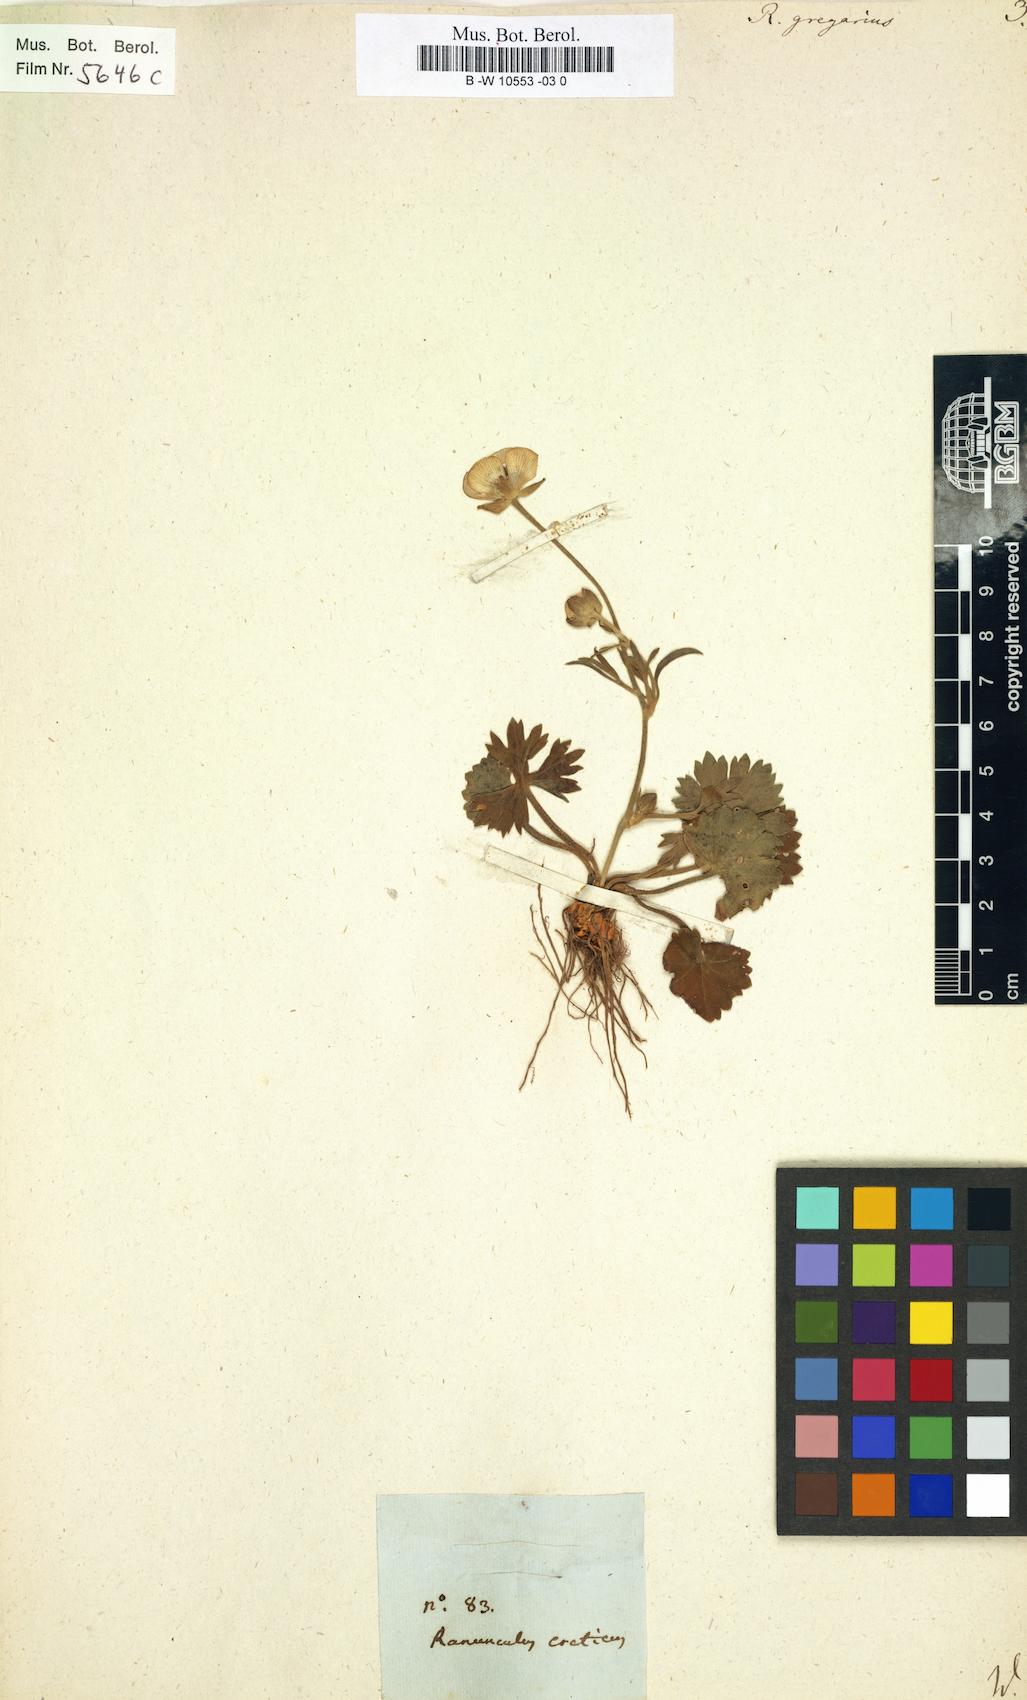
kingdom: Plantae
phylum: Tracheophyta
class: Magnoliopsida
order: Ranunculales
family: Ranunculaceae
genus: Ranunculus
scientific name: Ranunculus gregarius
